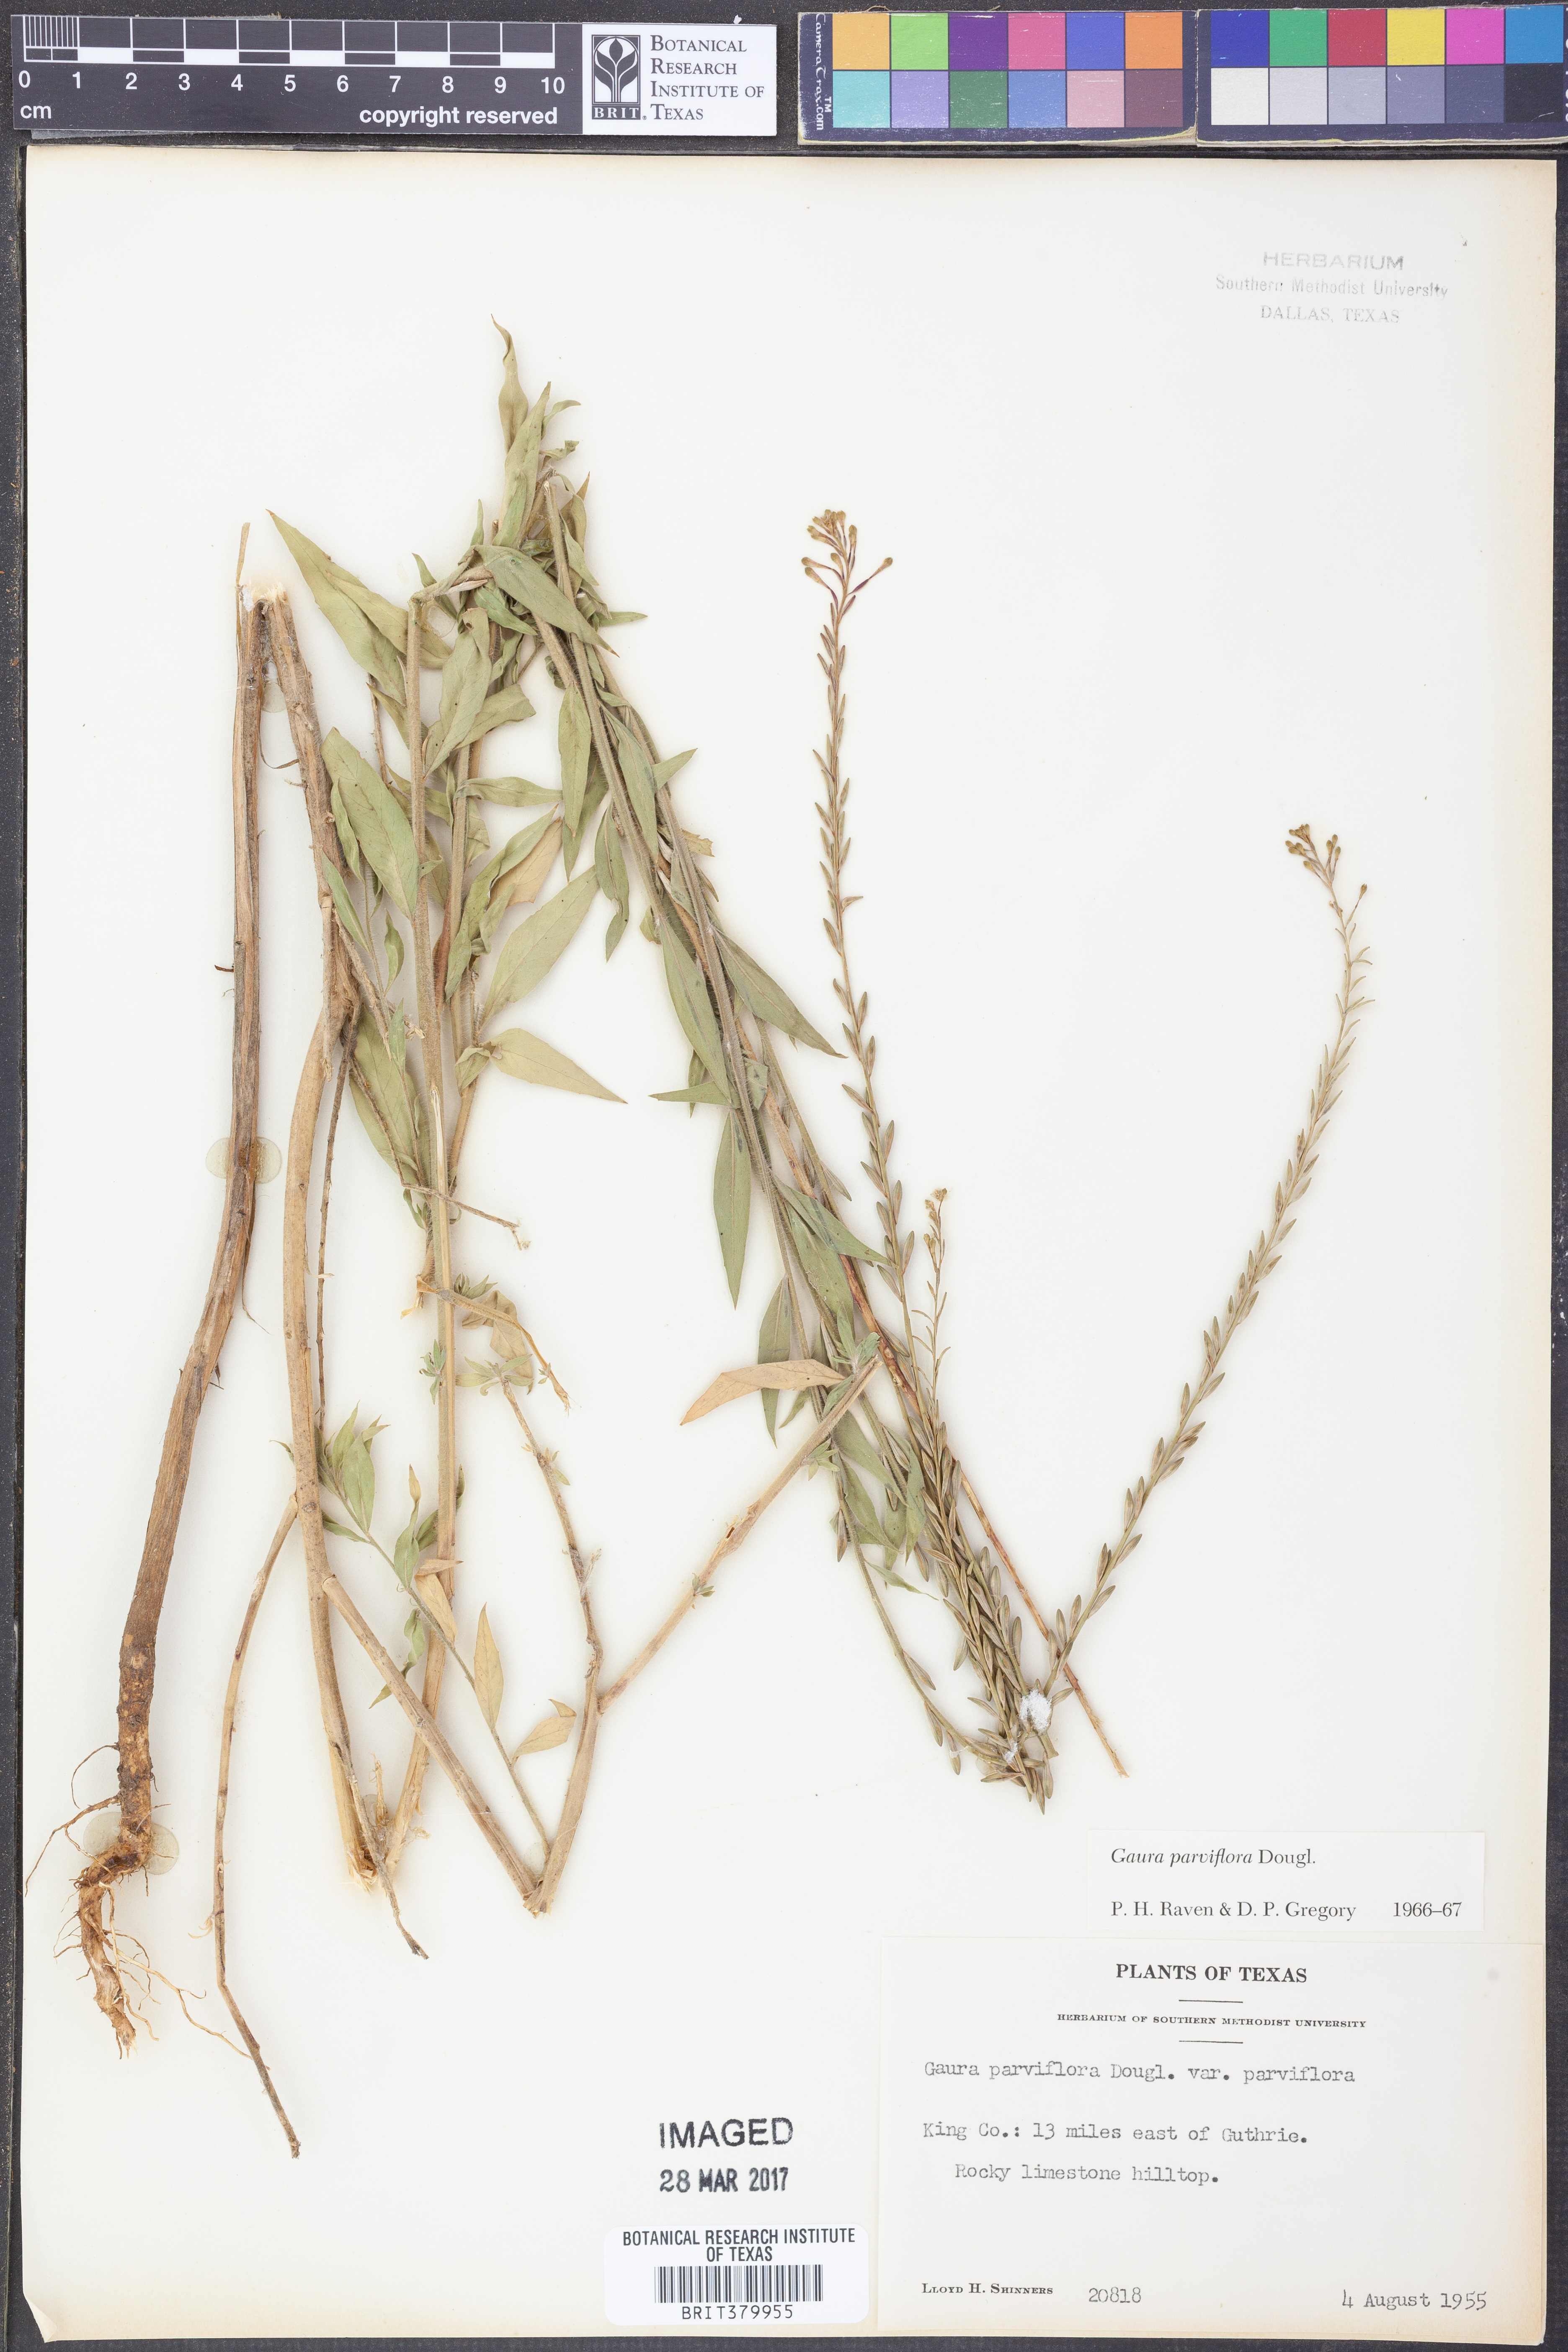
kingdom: Plantae
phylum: Tracheophyta
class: Magnoliopsida
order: Myrtales
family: Onagraceae
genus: Oenothera
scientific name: Oenothera curtiflora
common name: Velvetweed
